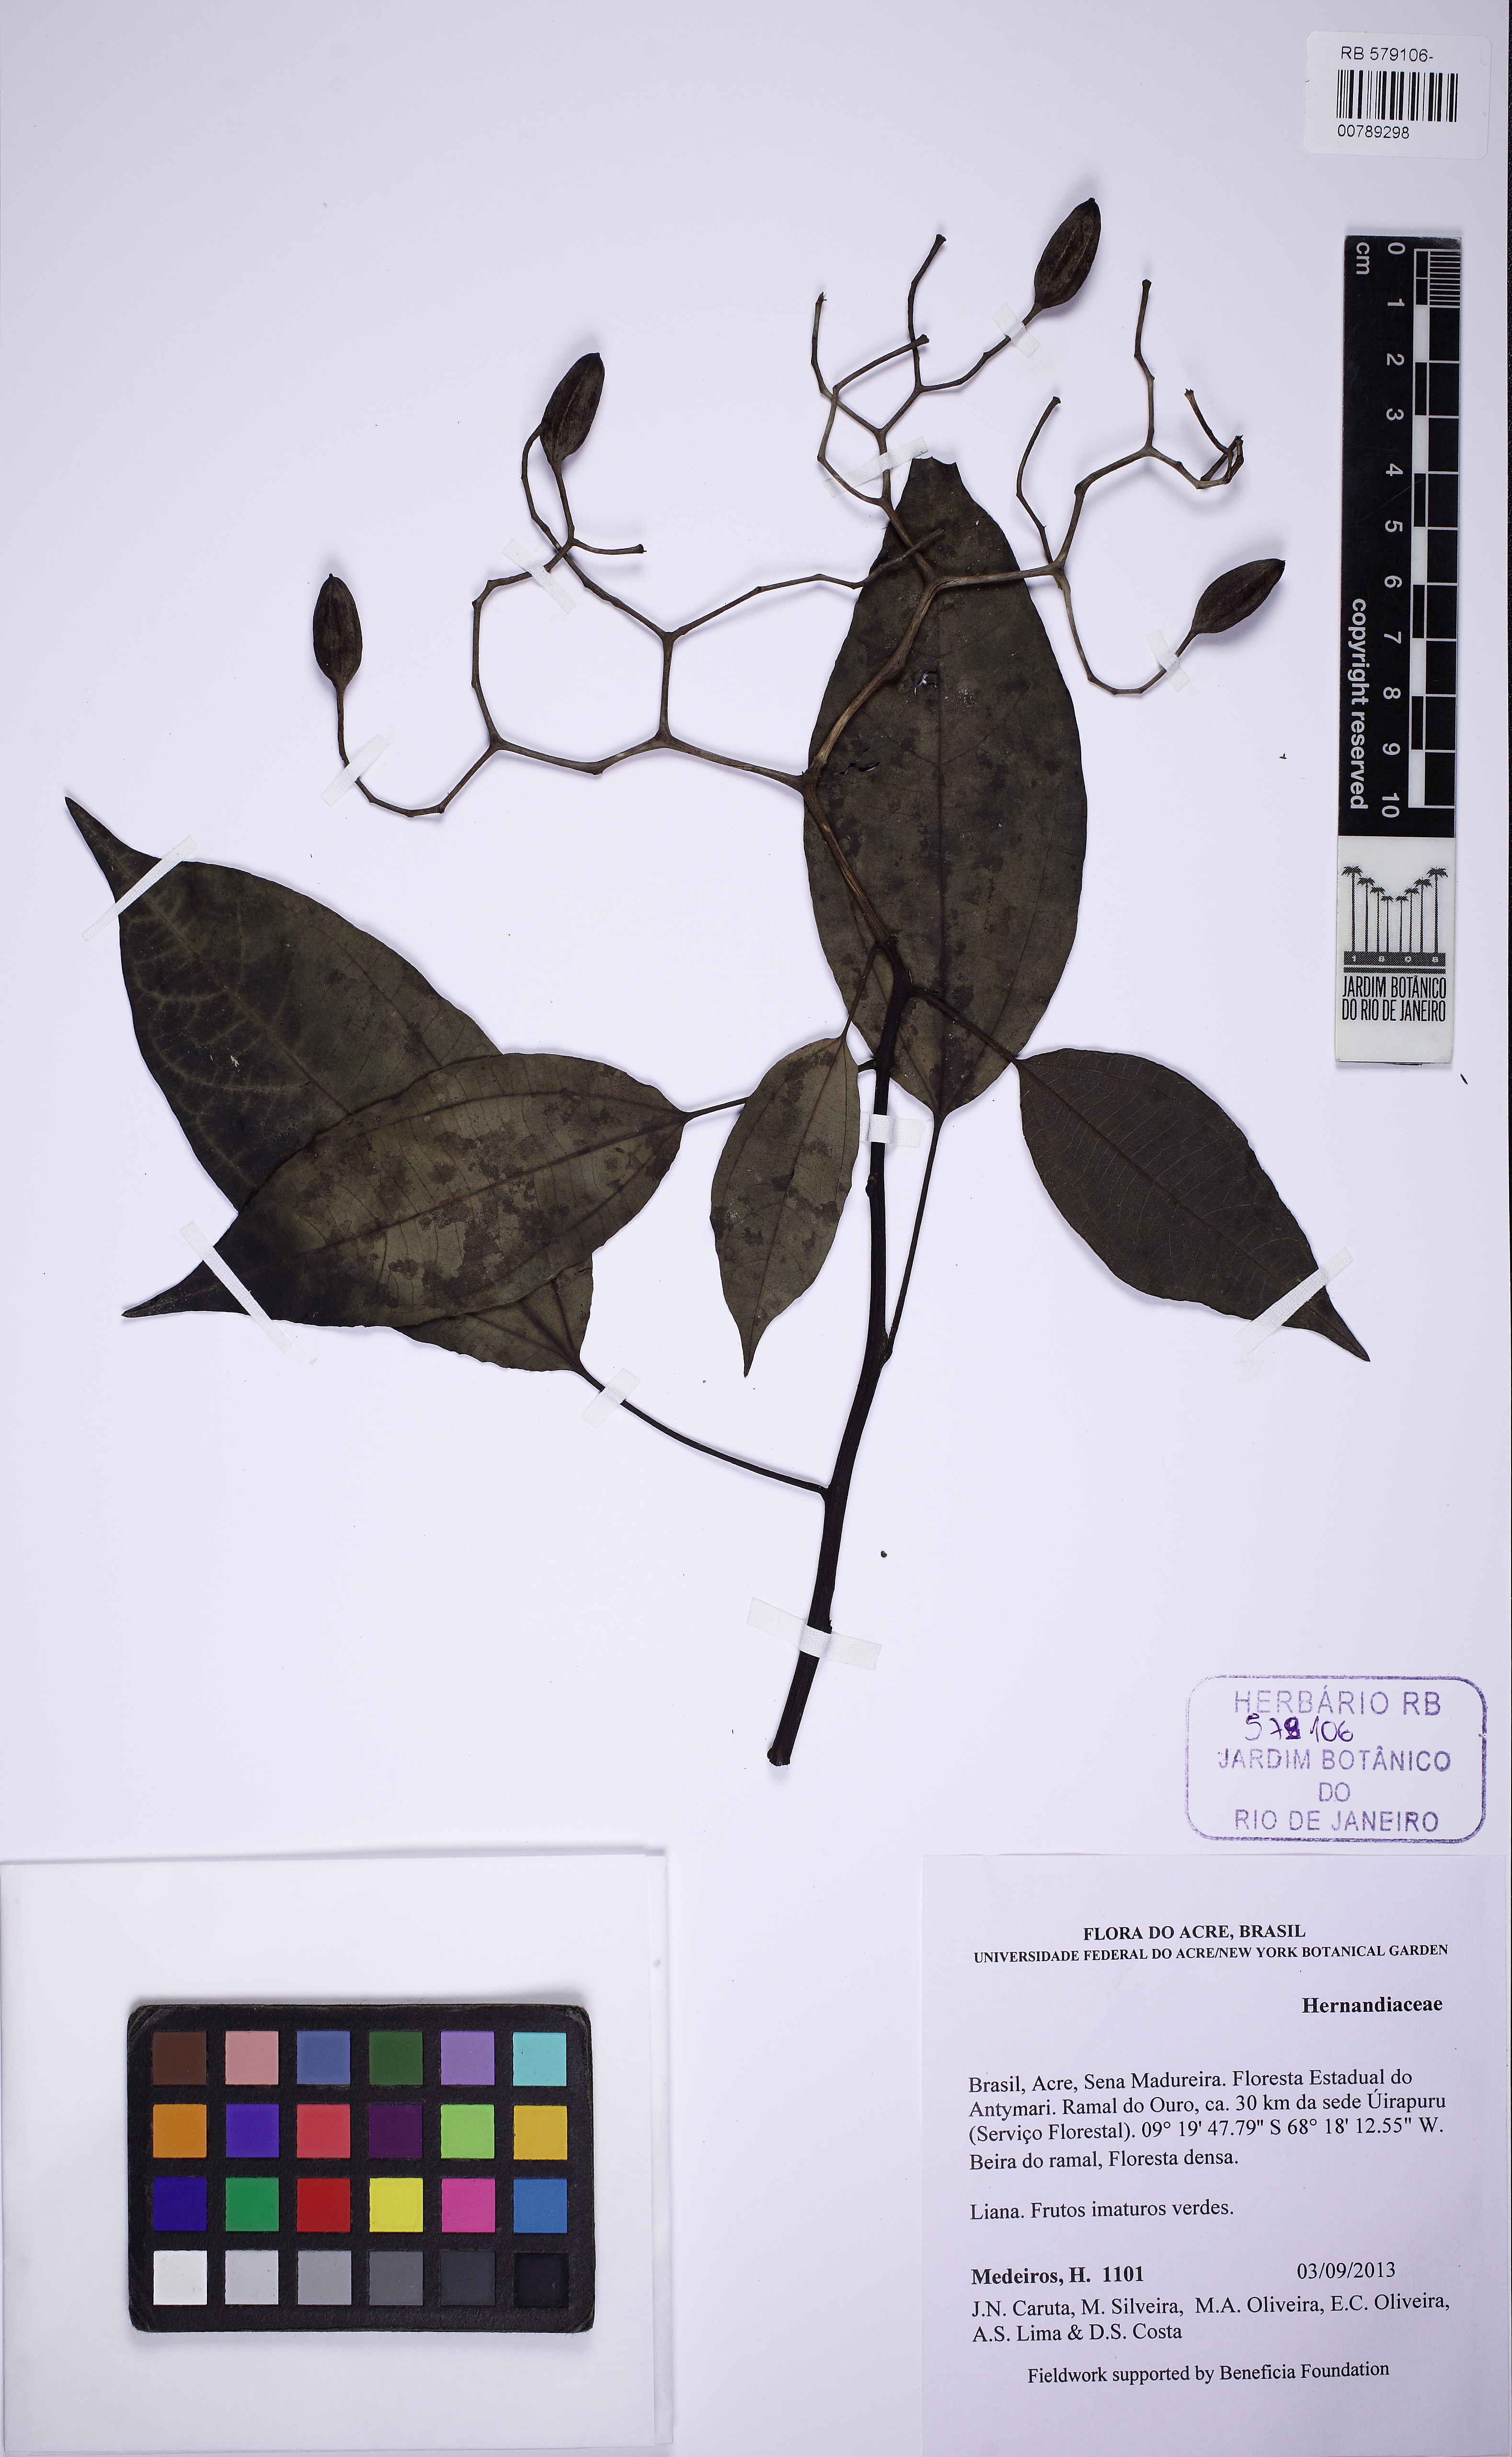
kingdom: Plantae
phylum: Tracheophyta
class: Magnoliopsida
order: Laurales
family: Hernandiaceae
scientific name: Hernandiaceae
